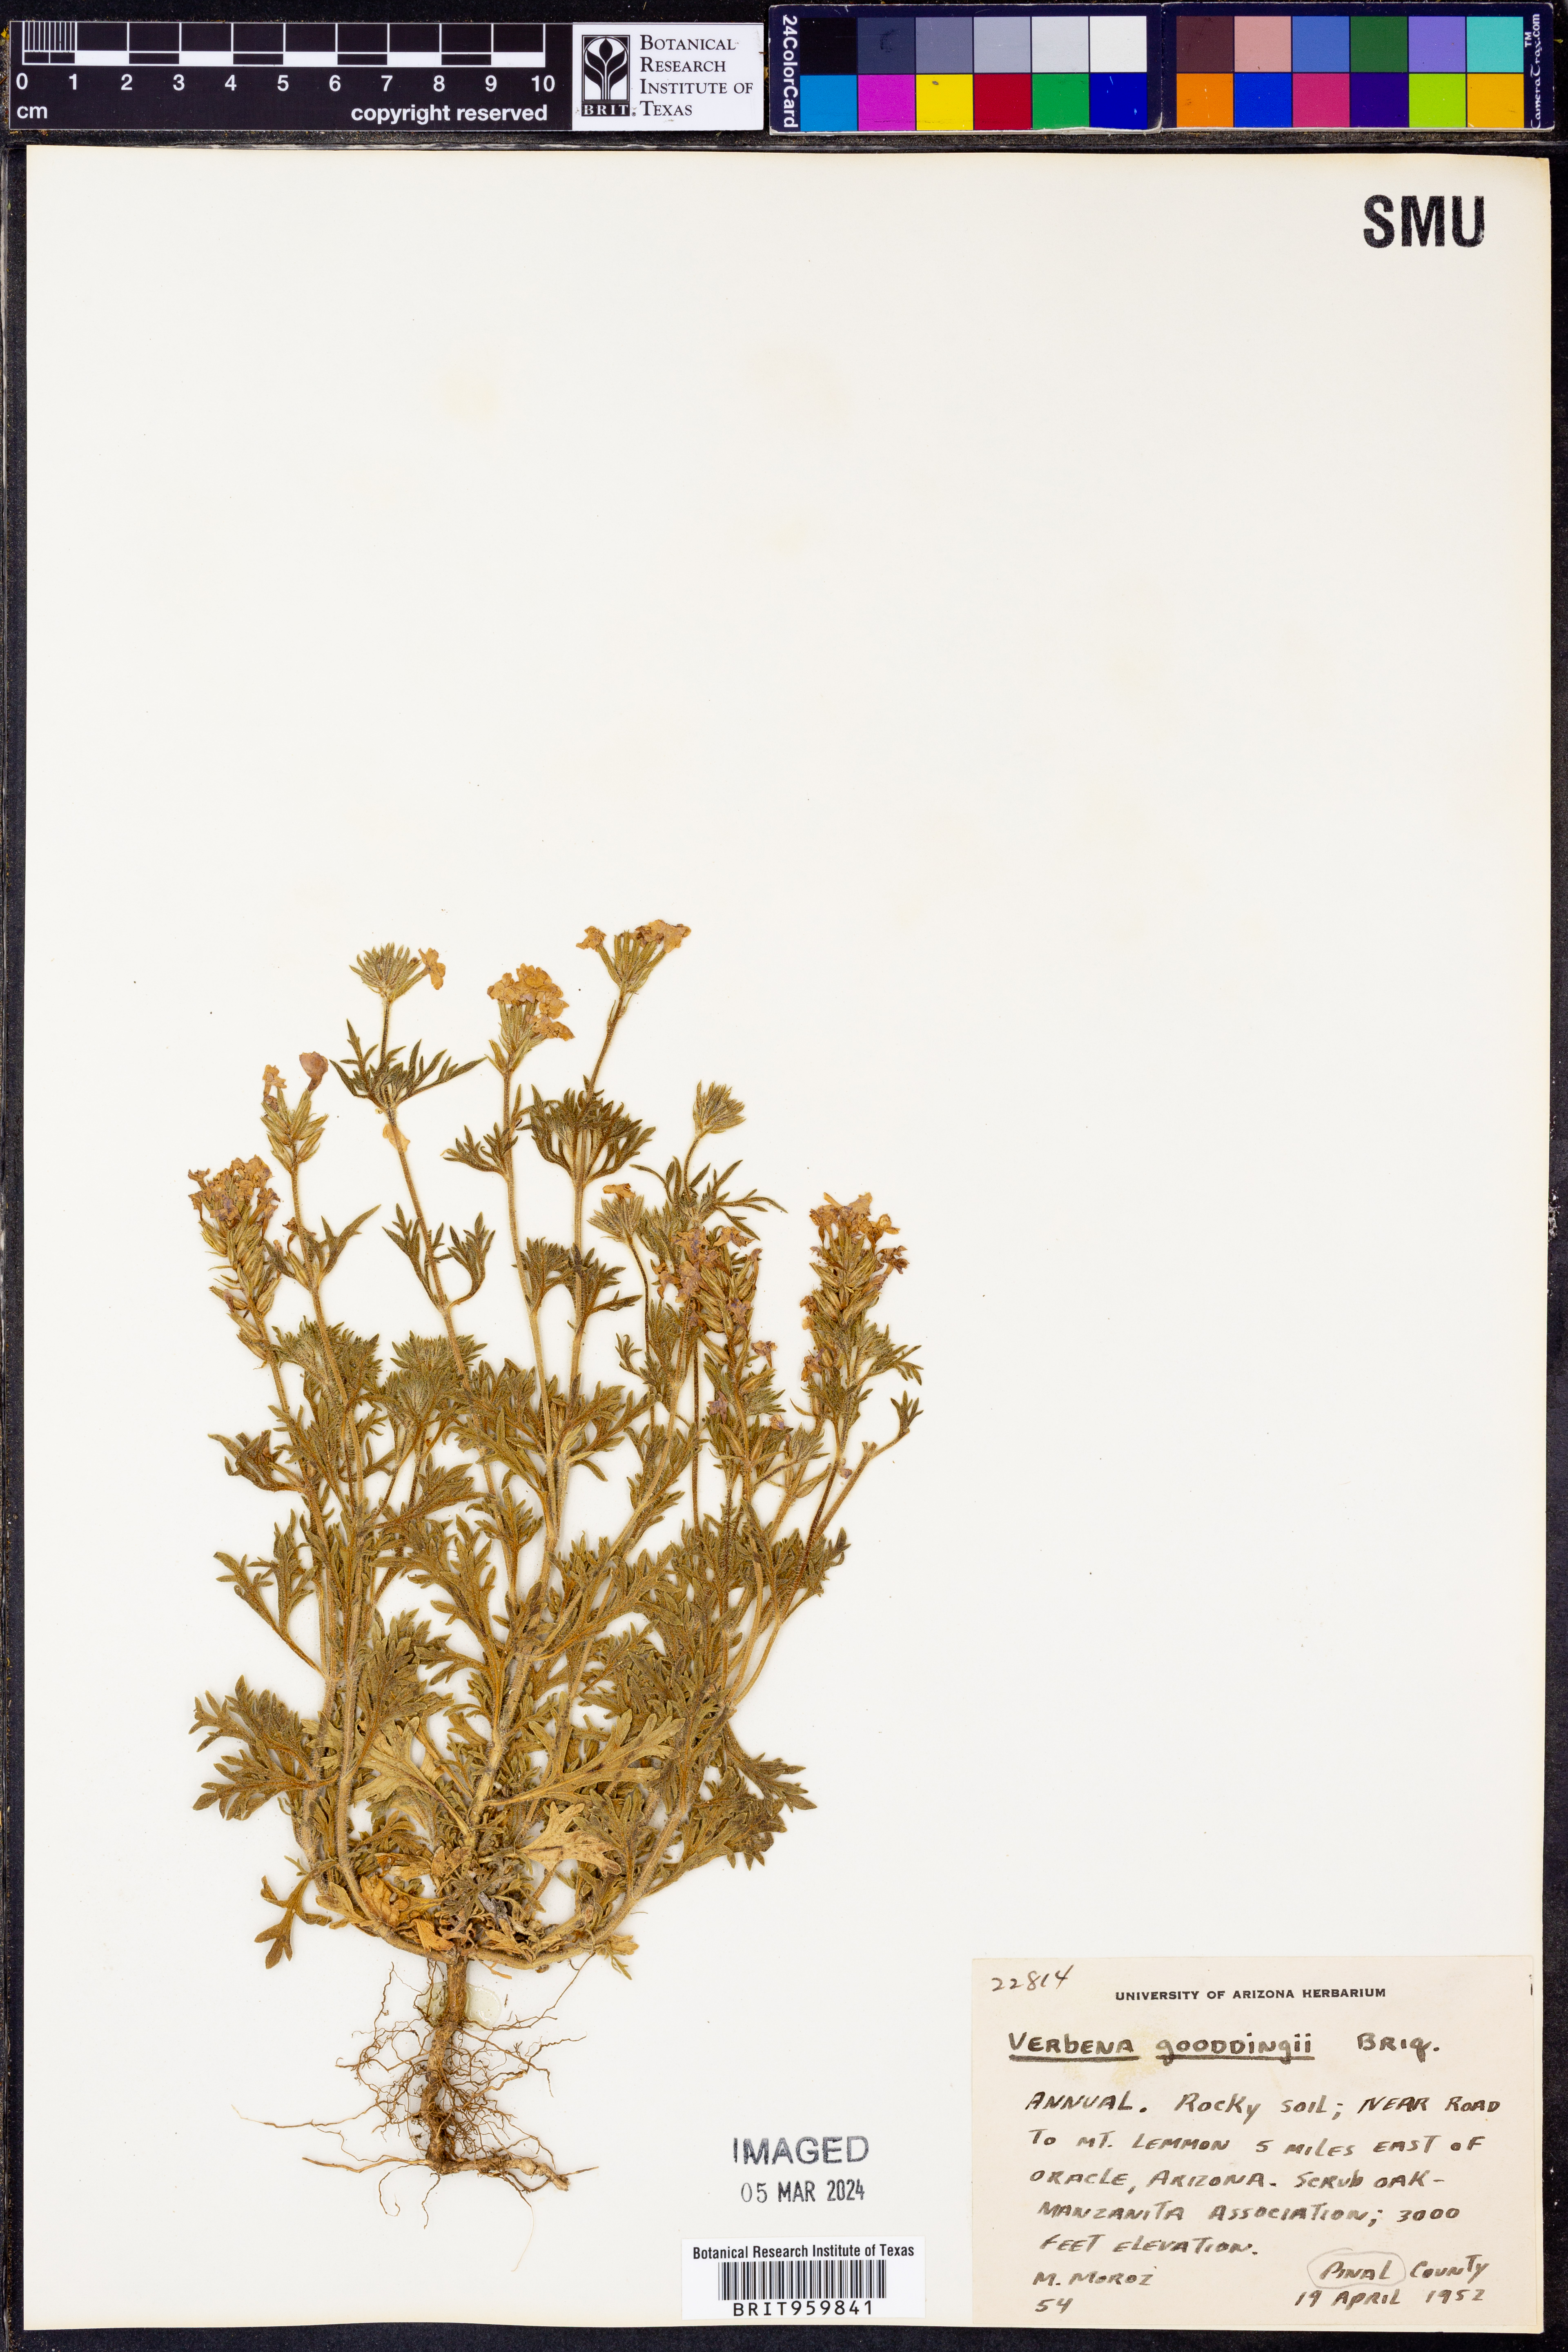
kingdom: Plantae
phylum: Tracheophyta
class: Magnoliopsida
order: Lamiales
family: Verbenaceae
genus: Verbena
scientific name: Verbena bipinnatifida
